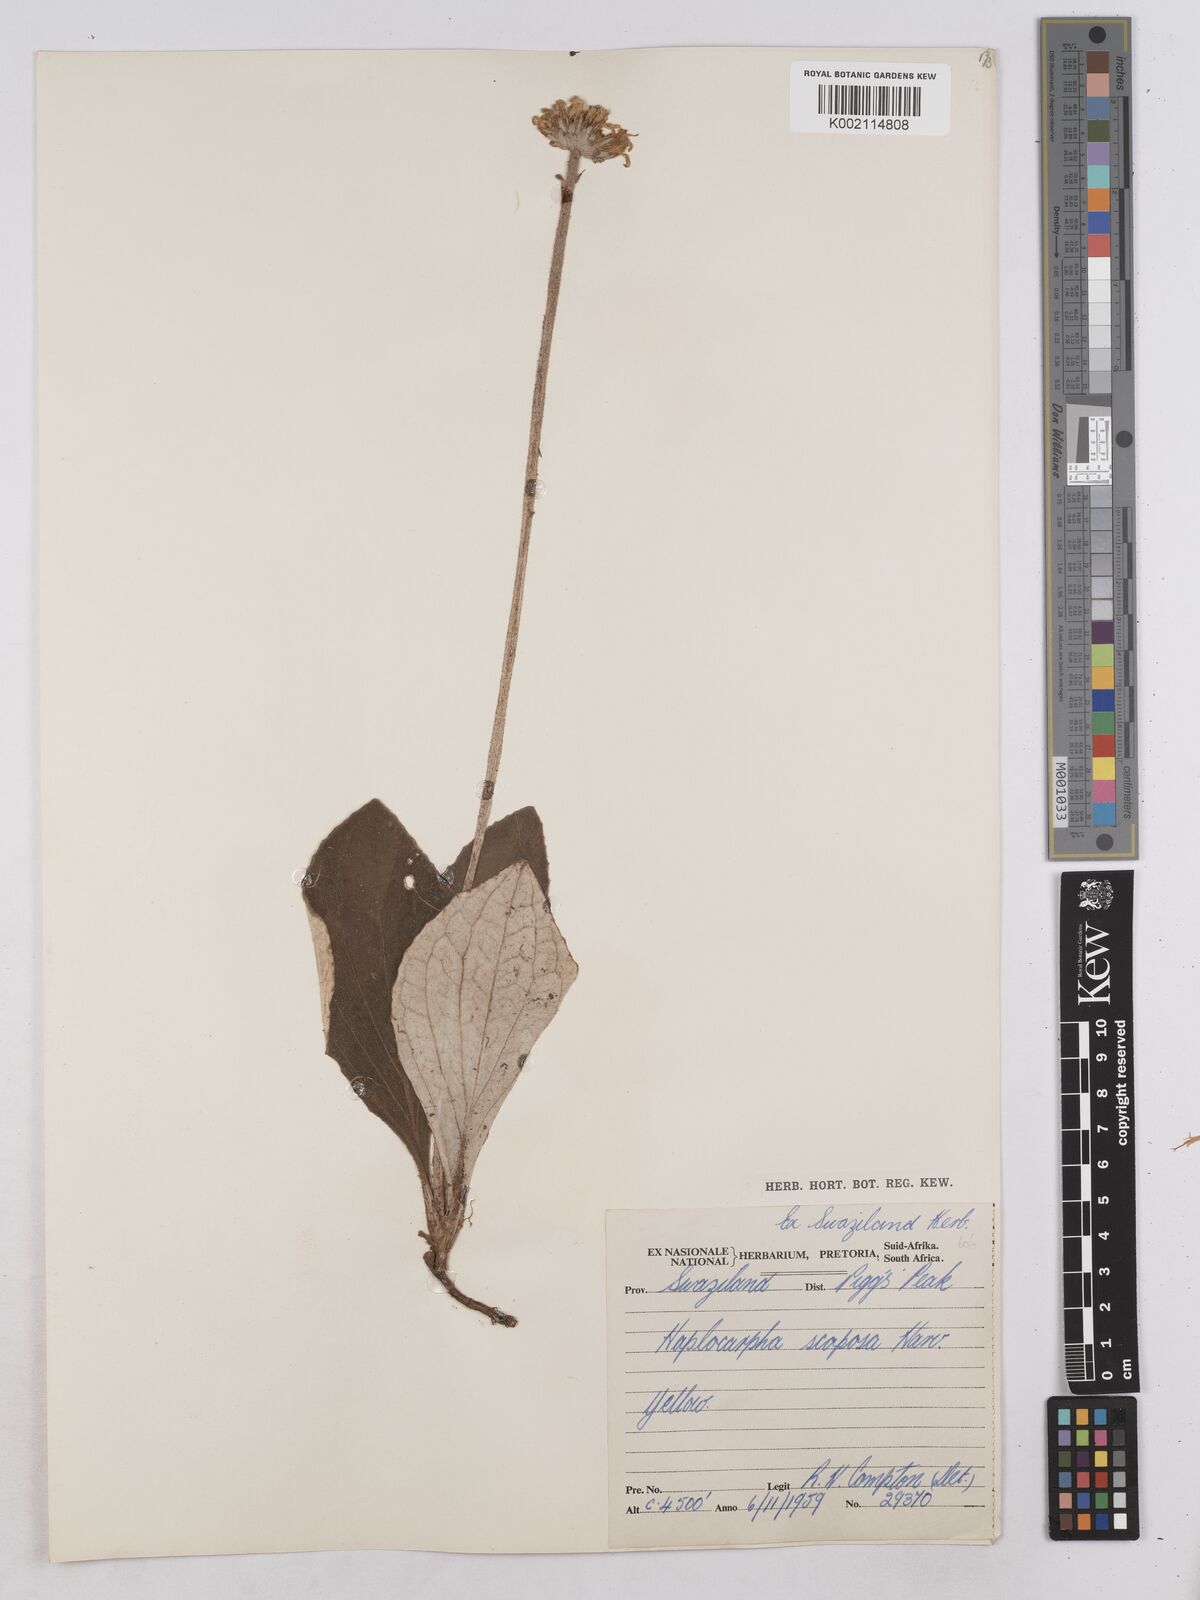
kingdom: Plantae
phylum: Tracheophyta
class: Magnoliopsida
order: Asterales
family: Asteraceae
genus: Haplocarpha
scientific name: Haplocarpha scaposa
